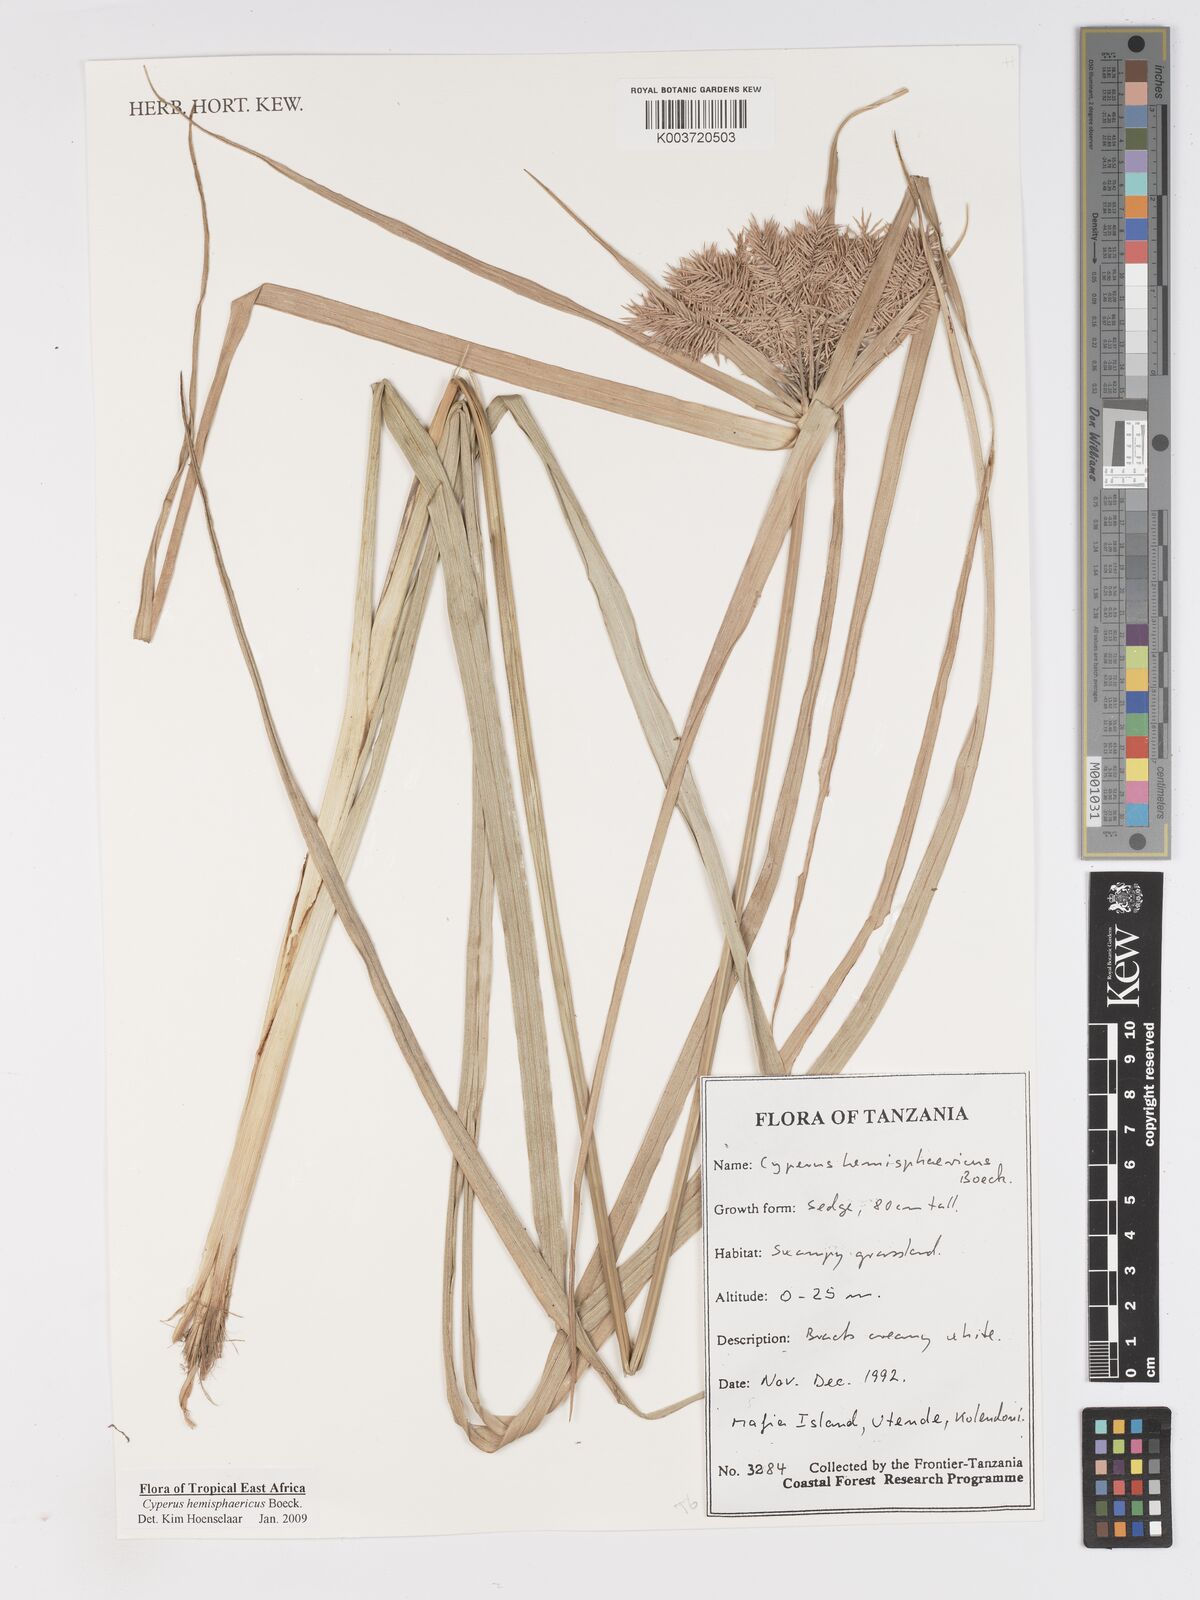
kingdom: Plantae
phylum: Tracheophyta
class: Liliopsida
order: Poales
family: Cyperaceae
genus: Cyperus
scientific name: Cyperus hemisphaericus
